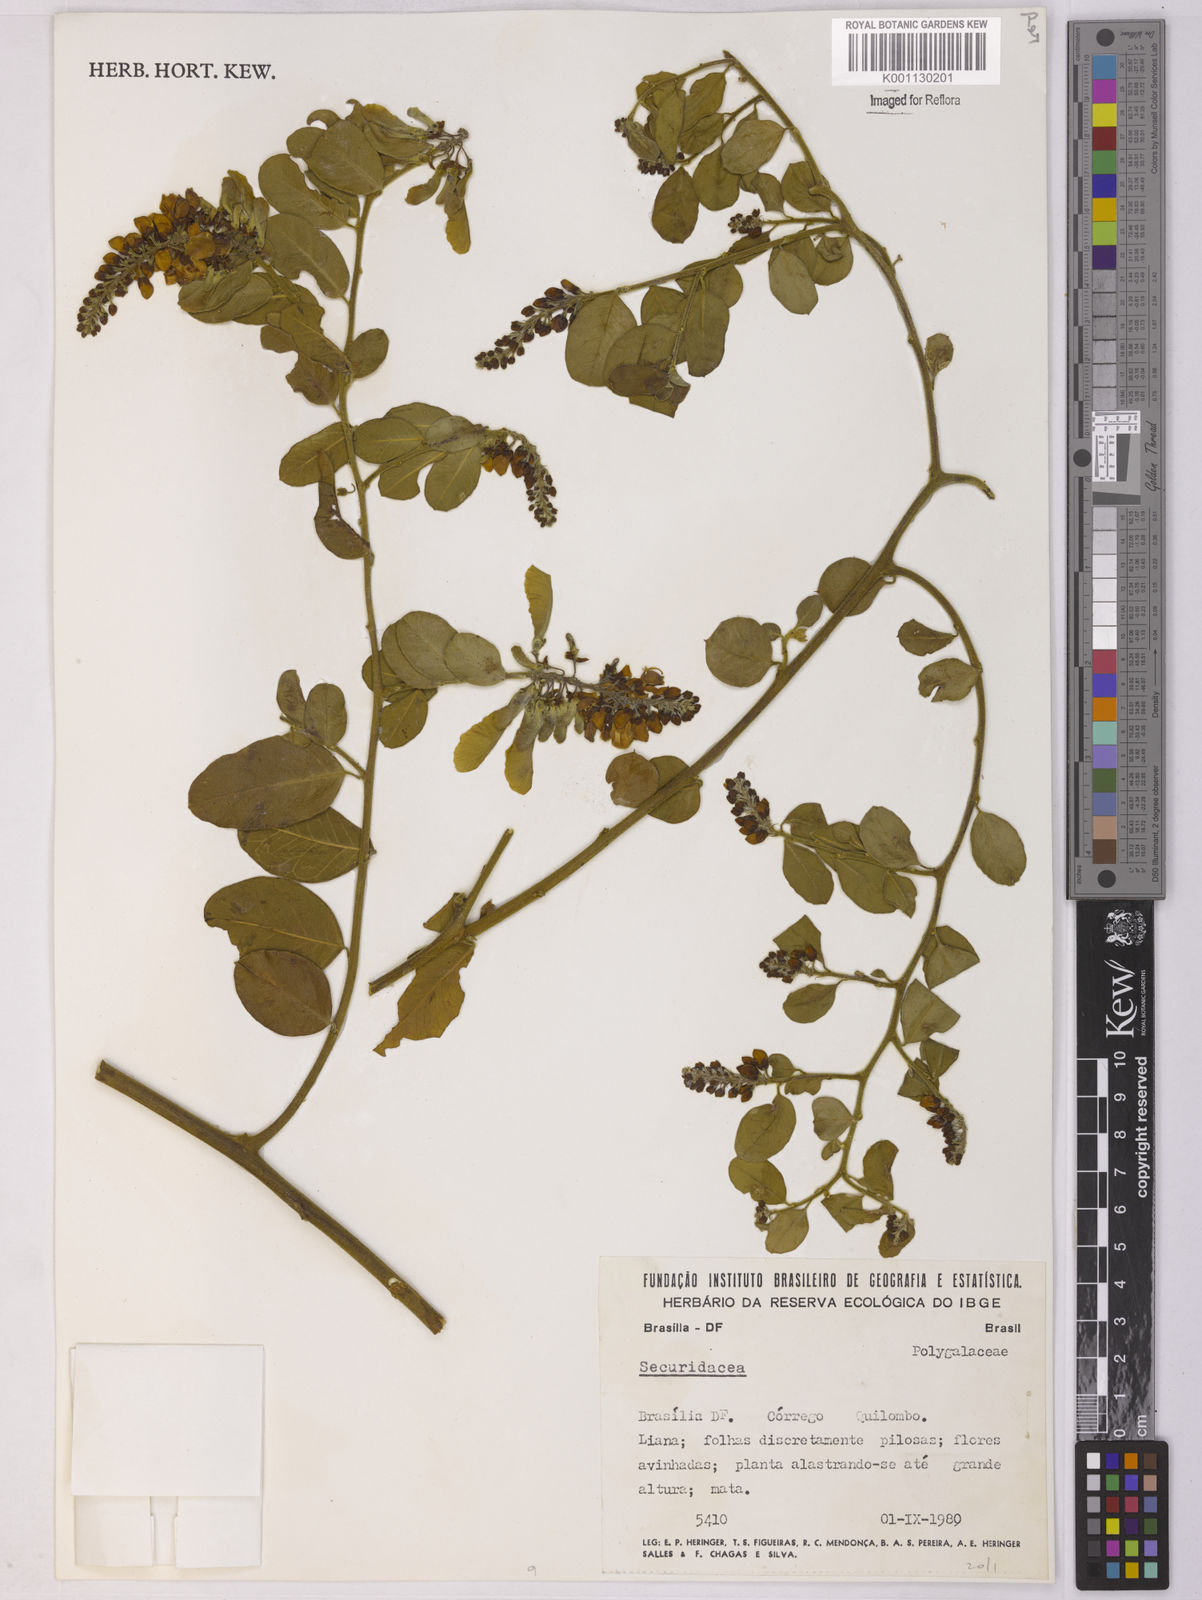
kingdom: Plantae
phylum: Tracheophyta
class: Magnoliopsida
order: Fabales
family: Polygalaceae
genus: Securidaca
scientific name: Securidaca
